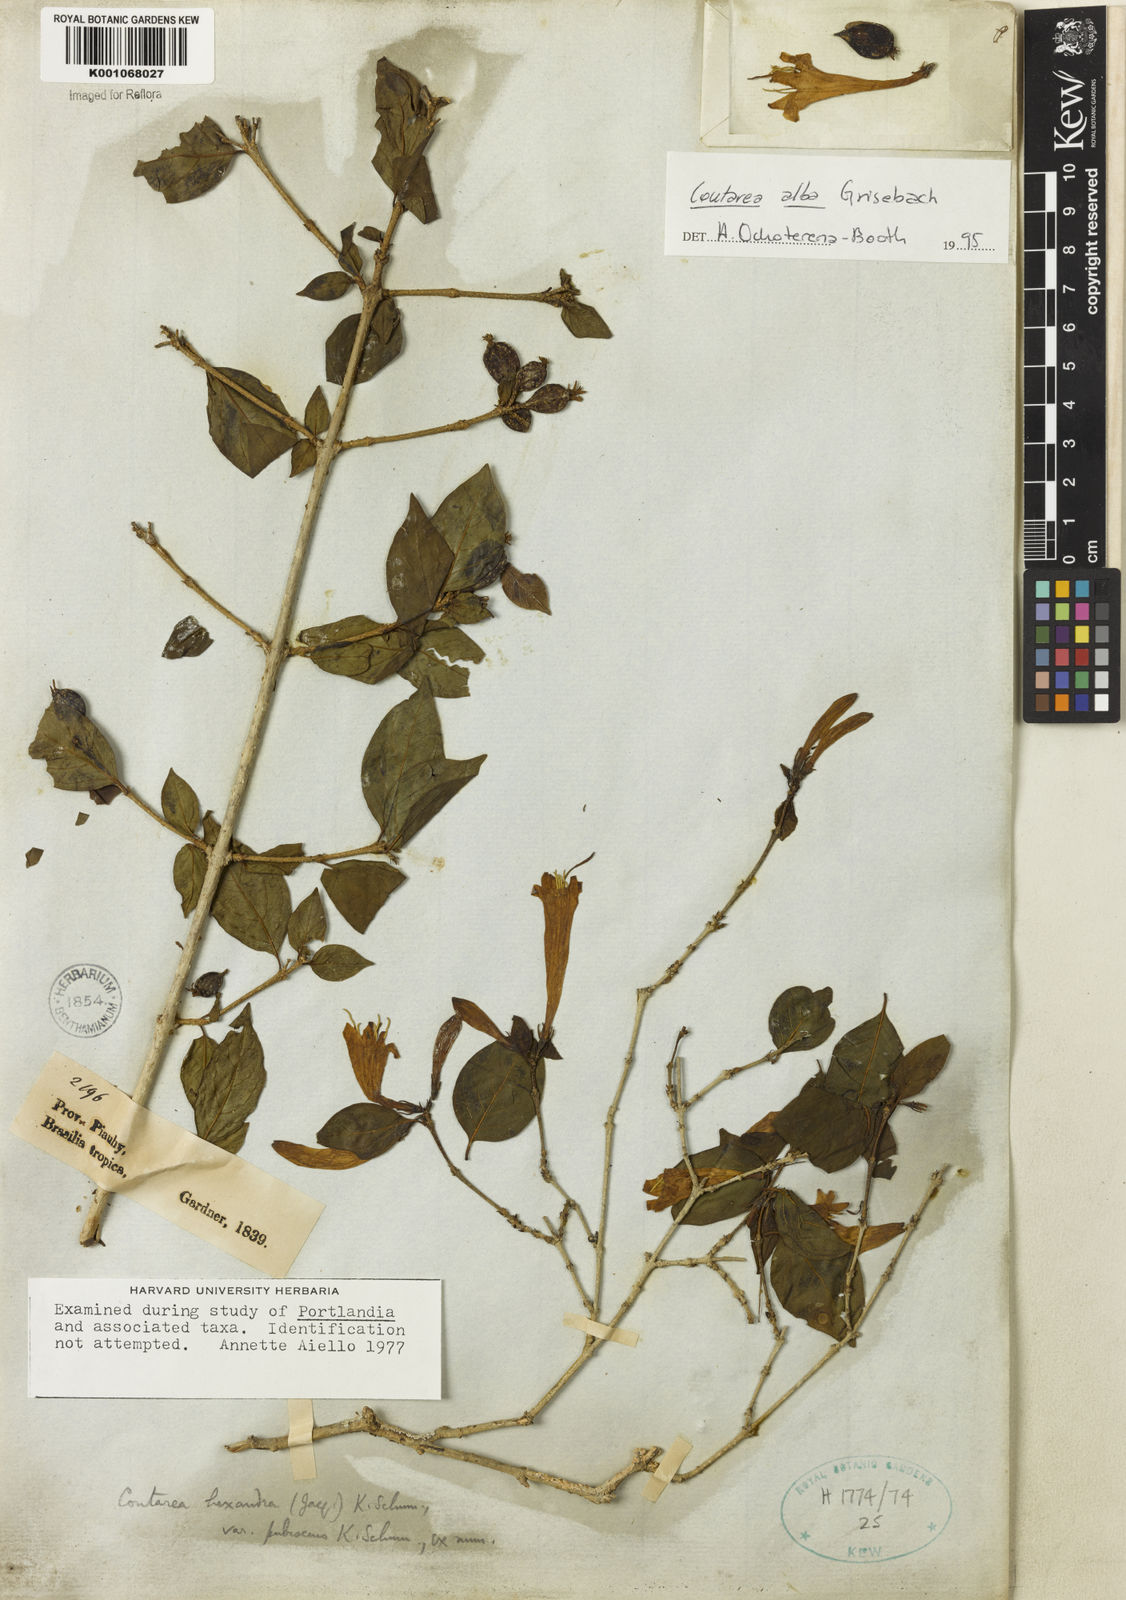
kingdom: Plantae
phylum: Tracheophyta
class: Magnoliopsida
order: Gentianales
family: Rubiaceae
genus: Coutarea
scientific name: Coutarea alba
